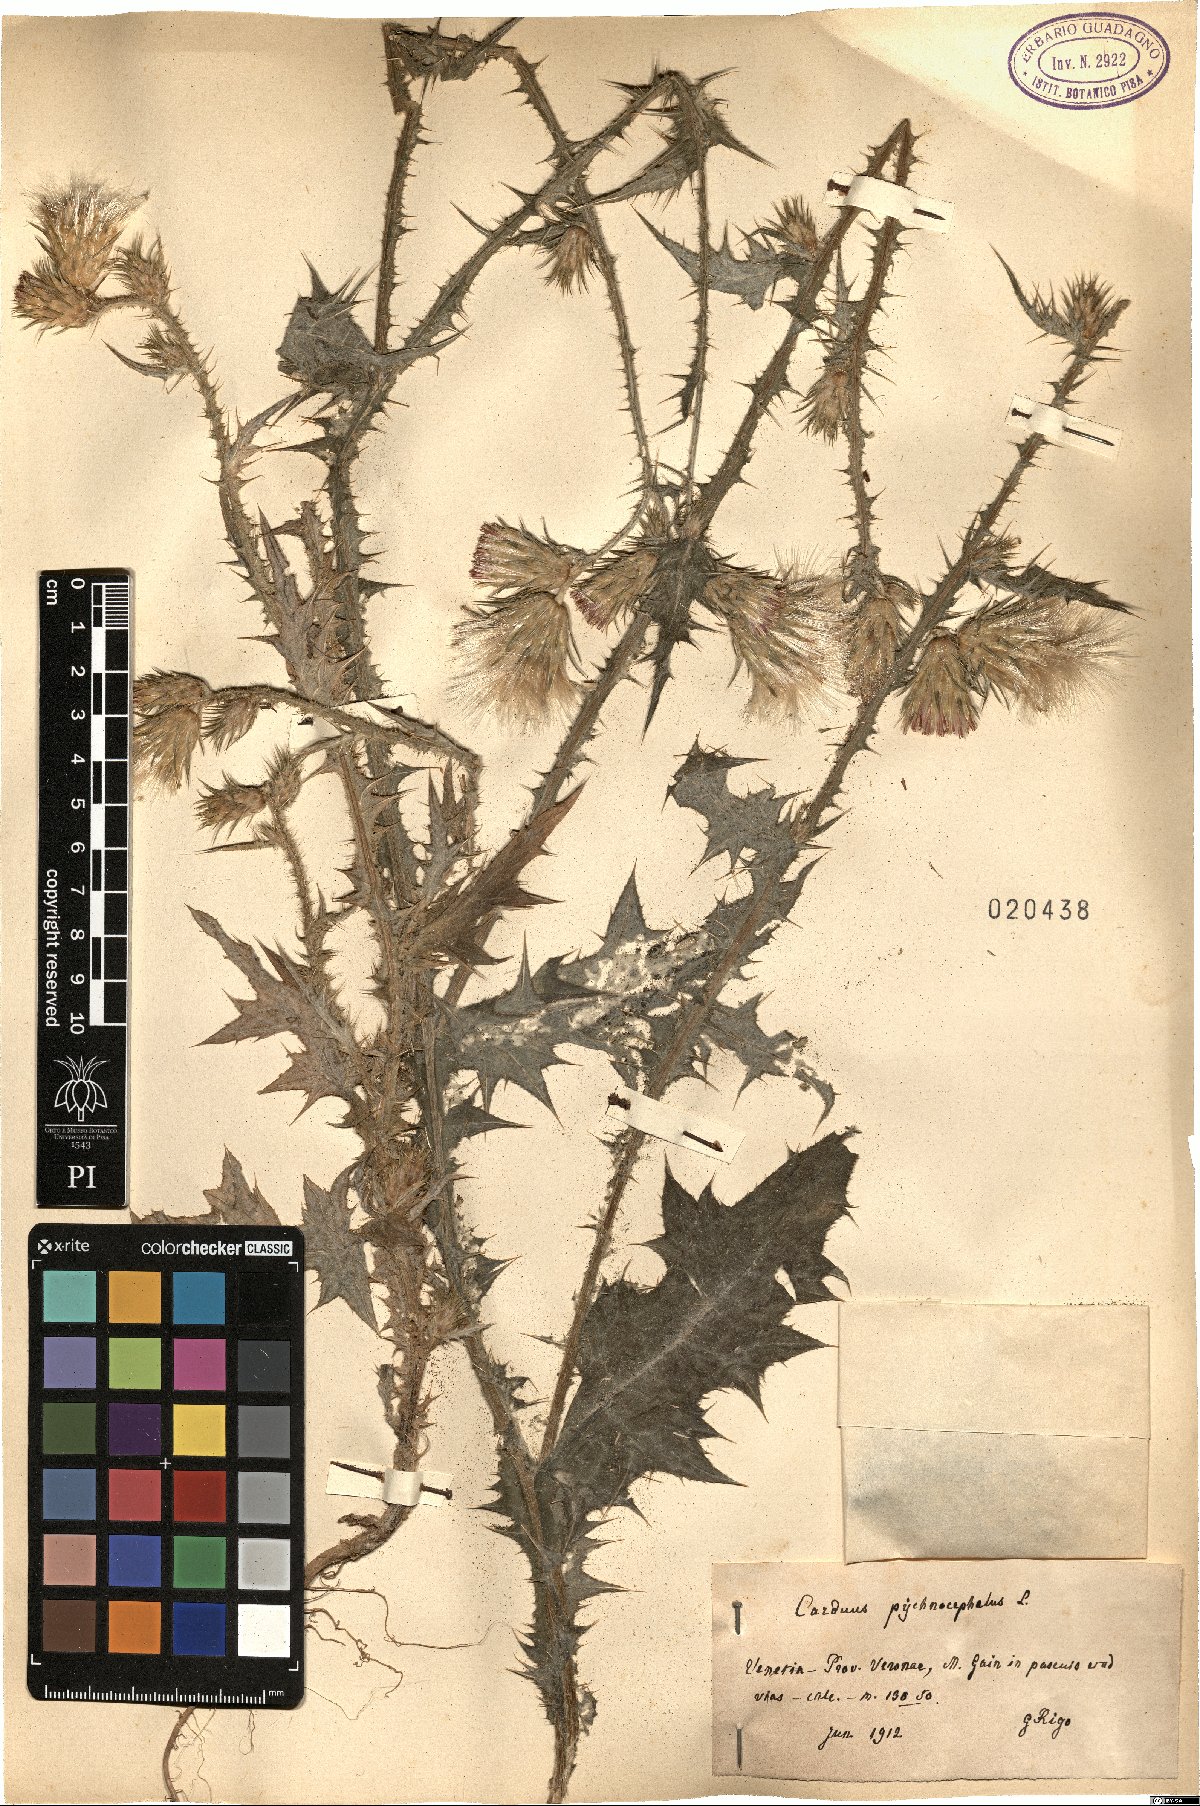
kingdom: Plantae
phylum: Tracheophyta
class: Magnoliopsida
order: Asterales
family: Asteraceae
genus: Carduus
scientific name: Carduus pycnocephalus
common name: Plymouth thistle
